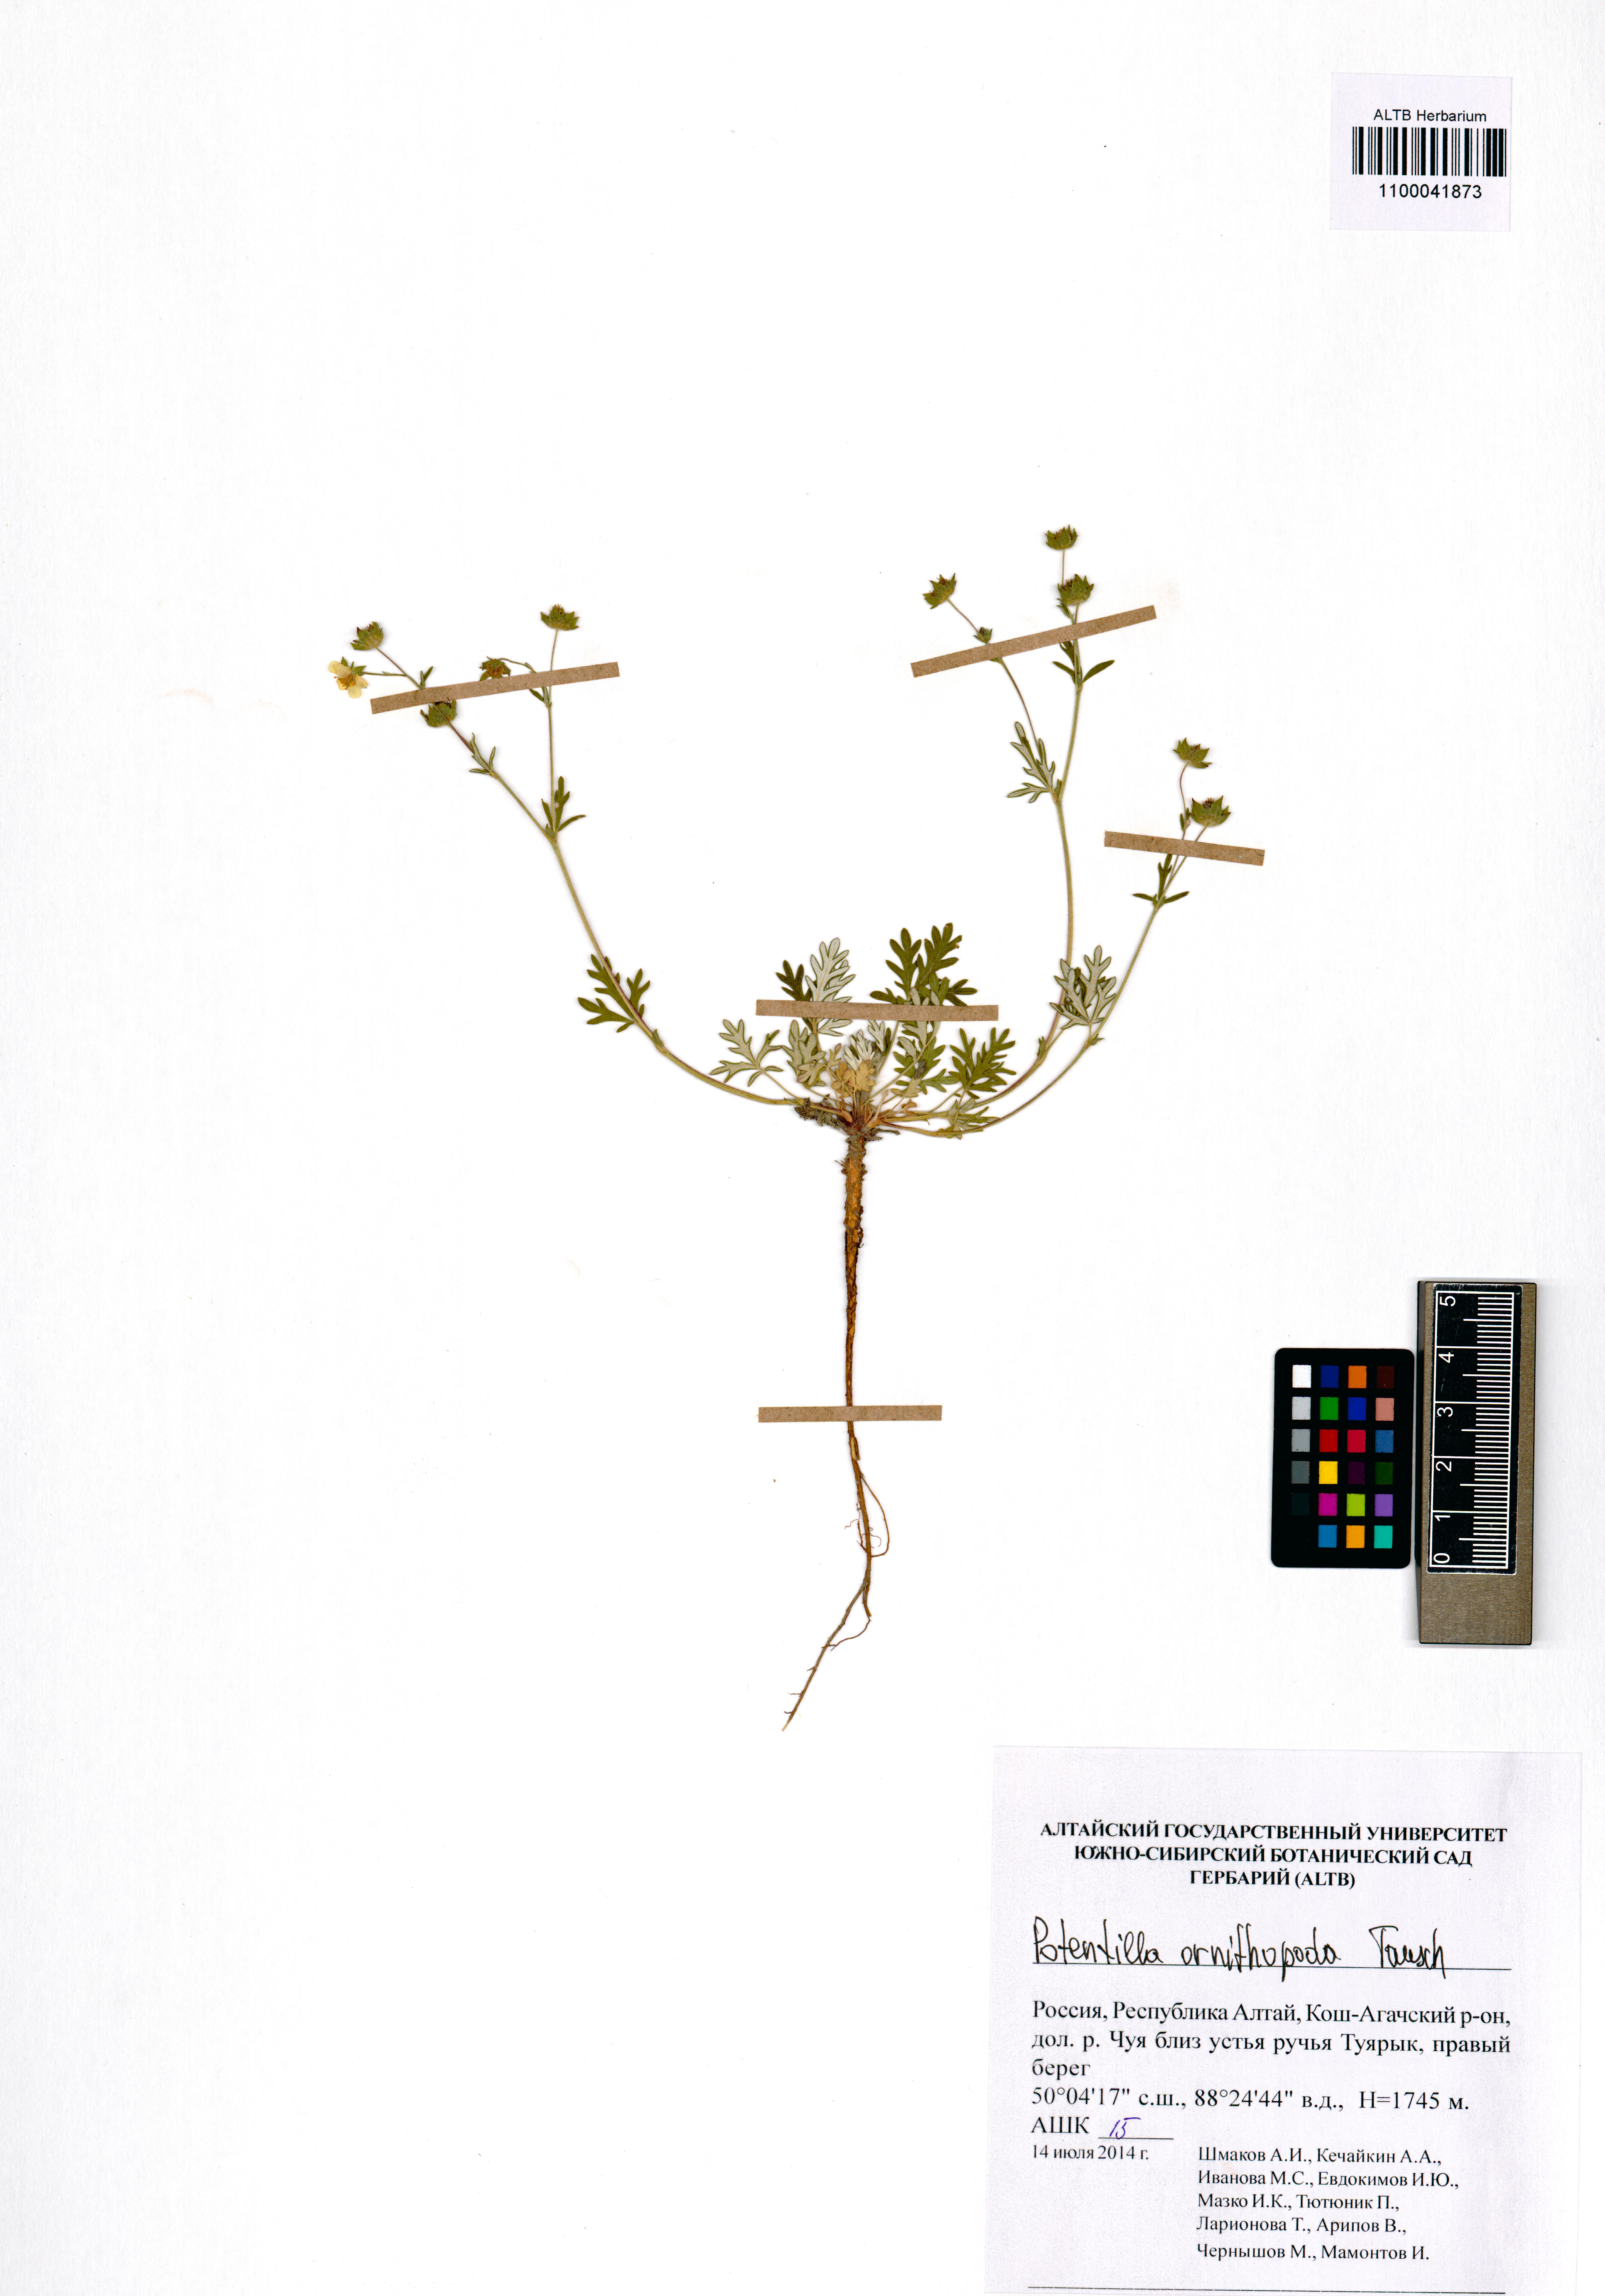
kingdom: Plantae
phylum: Tracheophyta
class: Magnoliopsida
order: Rosales
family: Rosaceae
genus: Potentilla
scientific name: Potentilla ornithopoda
